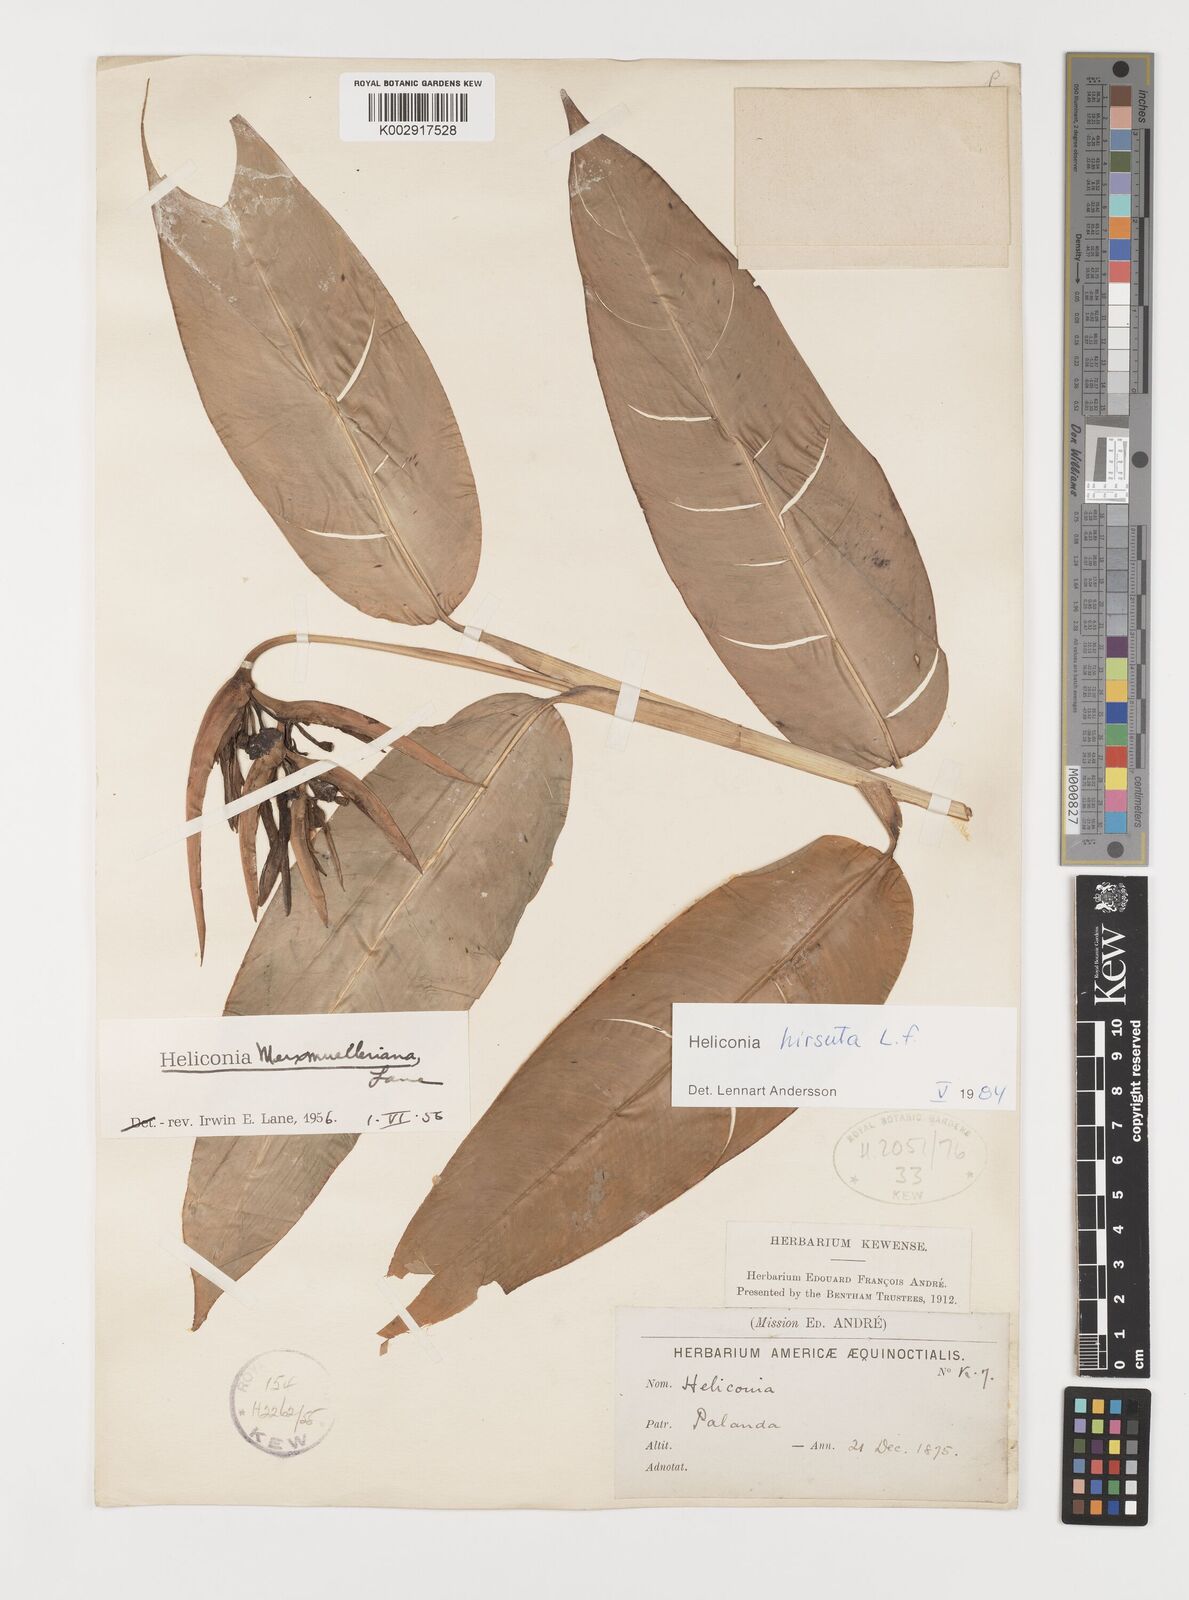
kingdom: Plantae
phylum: Tracheophyta
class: Liliopsida
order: Zingiberales
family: Heliconiaceae
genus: Heliconia
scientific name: Heliconia hirsuta
